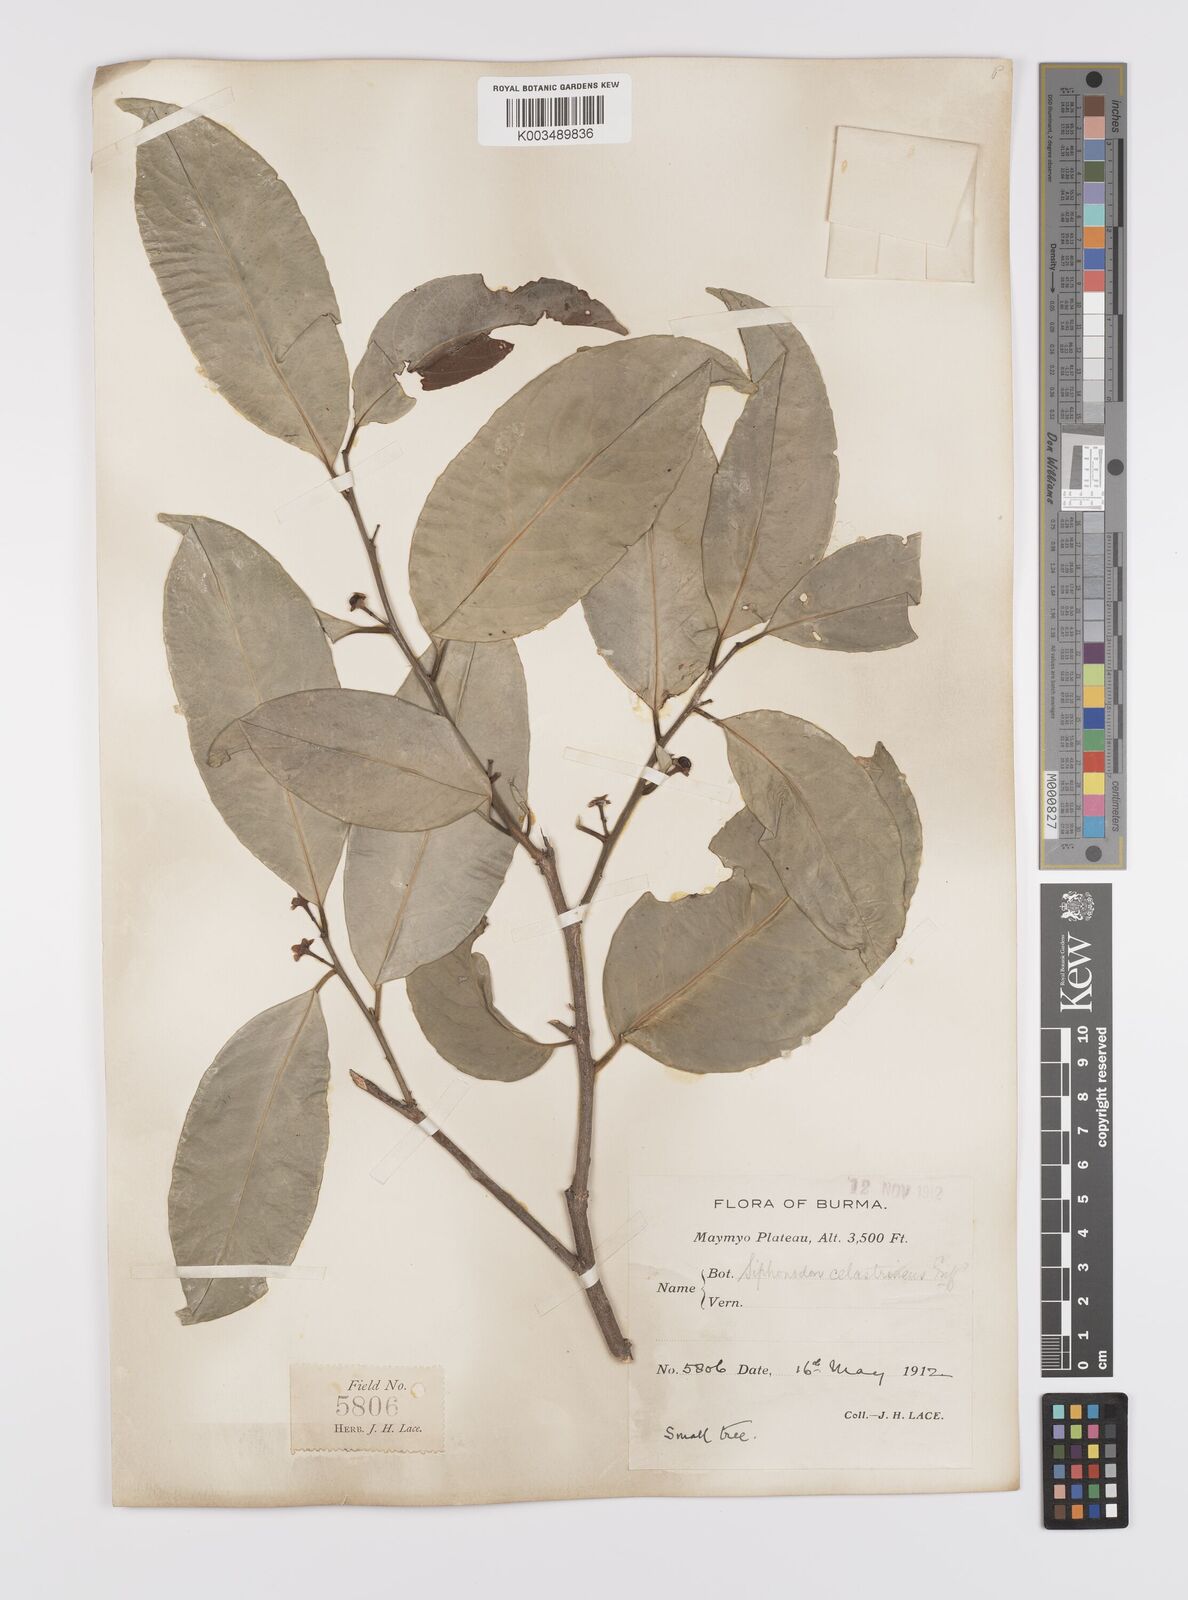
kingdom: Plantae
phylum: Tracheophyta
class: Magnoliopsida
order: Celastrales
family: Celastraceae
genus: Siphonodon
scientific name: Siphonodon celastrineus
